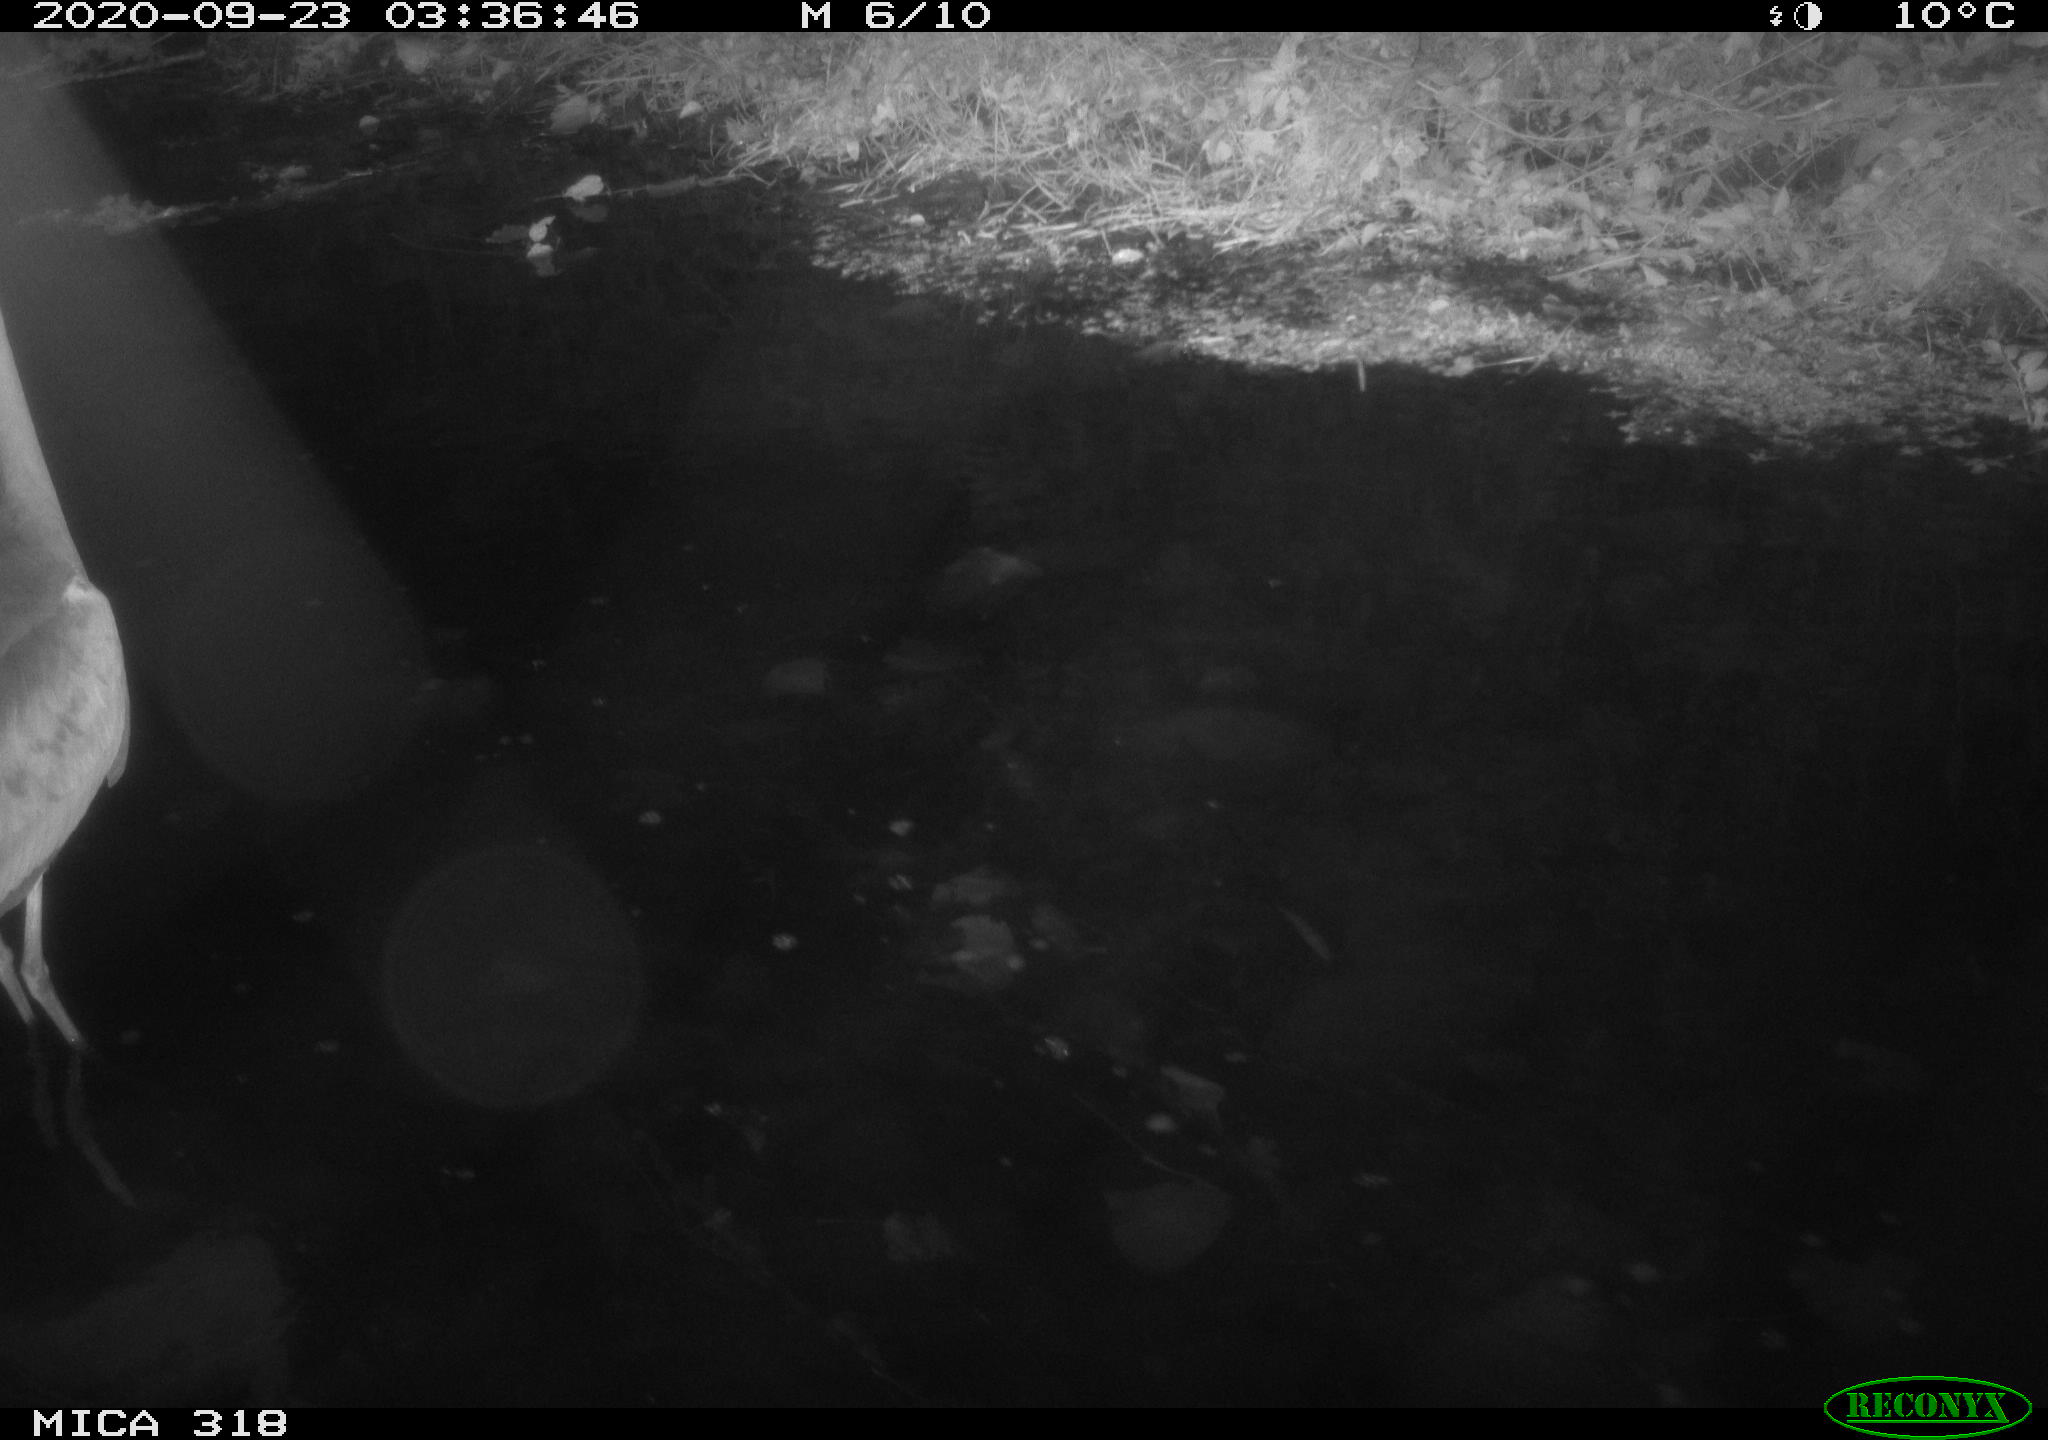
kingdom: Animalia
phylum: Chordata
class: Aves
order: Pelecaniformes
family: Ardeidae
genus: Ardea
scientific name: Ardea cinerea
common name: Grey heron
